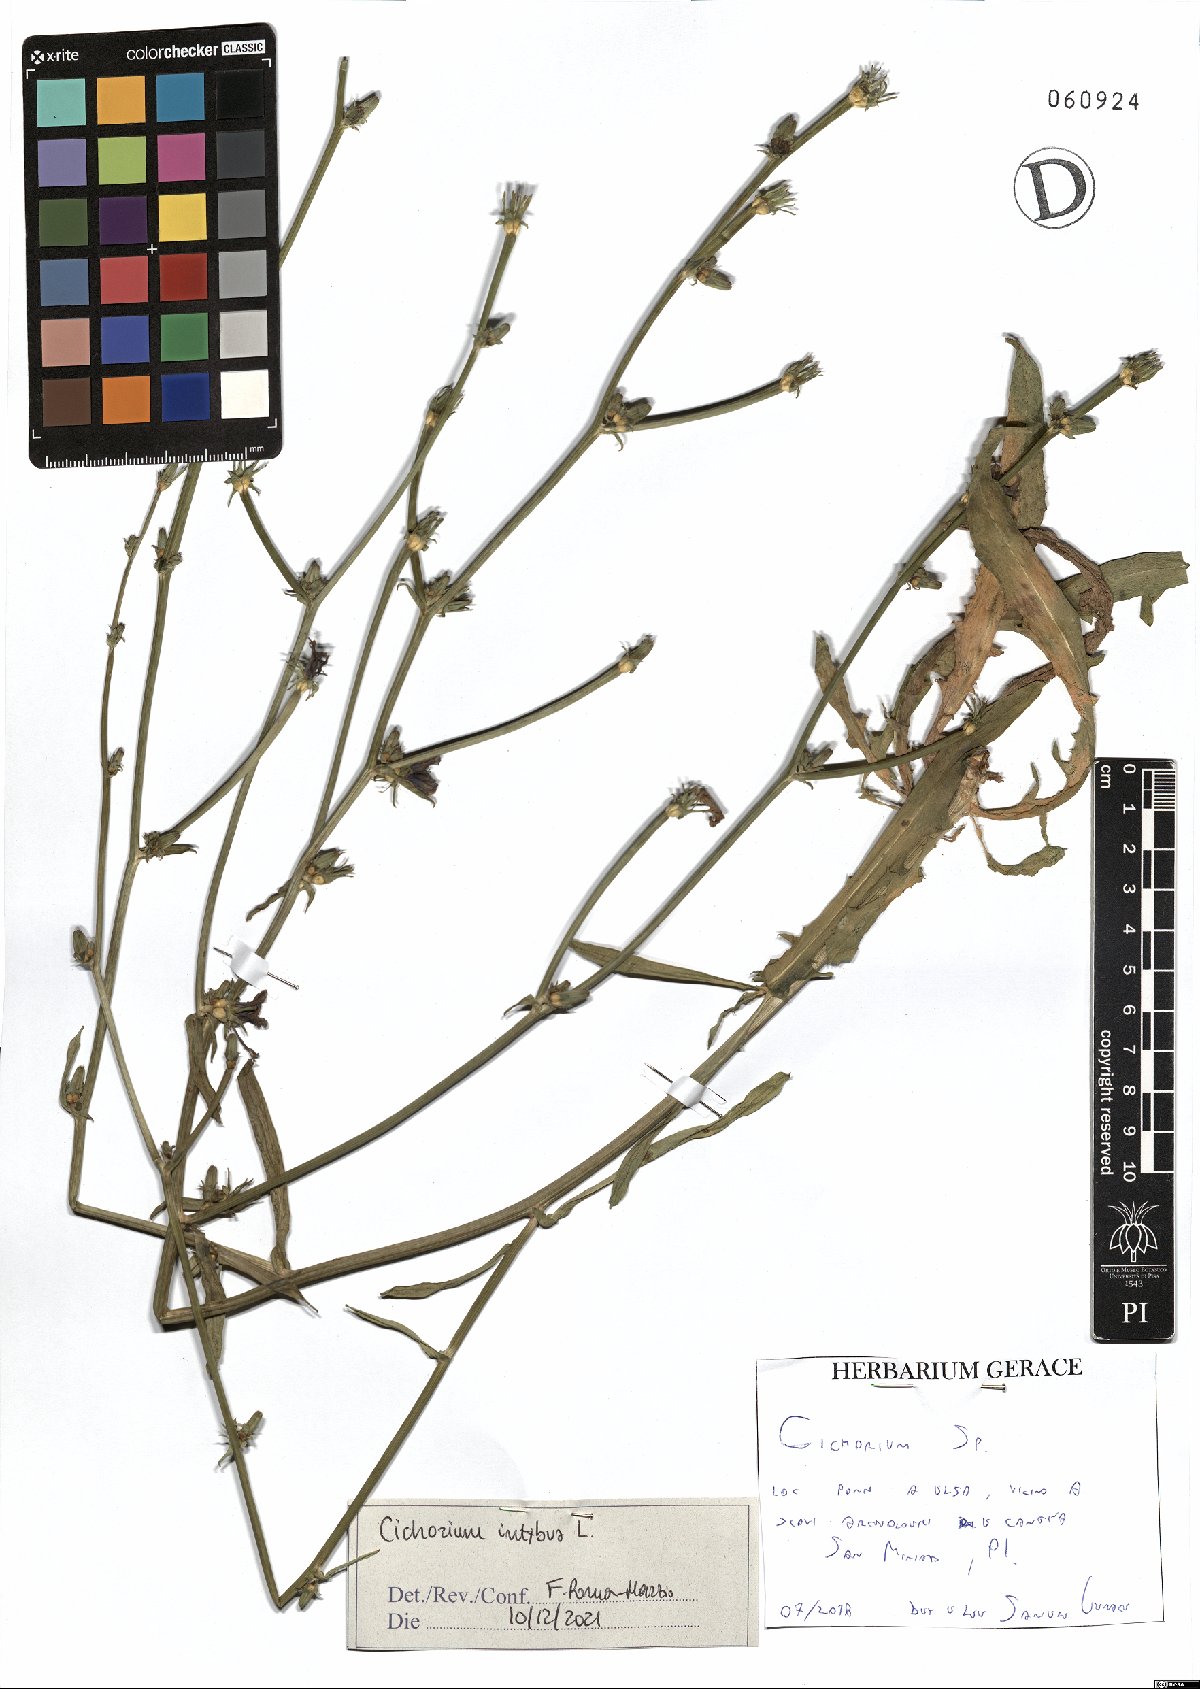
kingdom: Plantae
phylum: Tracheophyta
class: Magnoliopsida
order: Asterales
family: Asteraceae
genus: Cichorium
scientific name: Cichorium intybus
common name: Chicory
